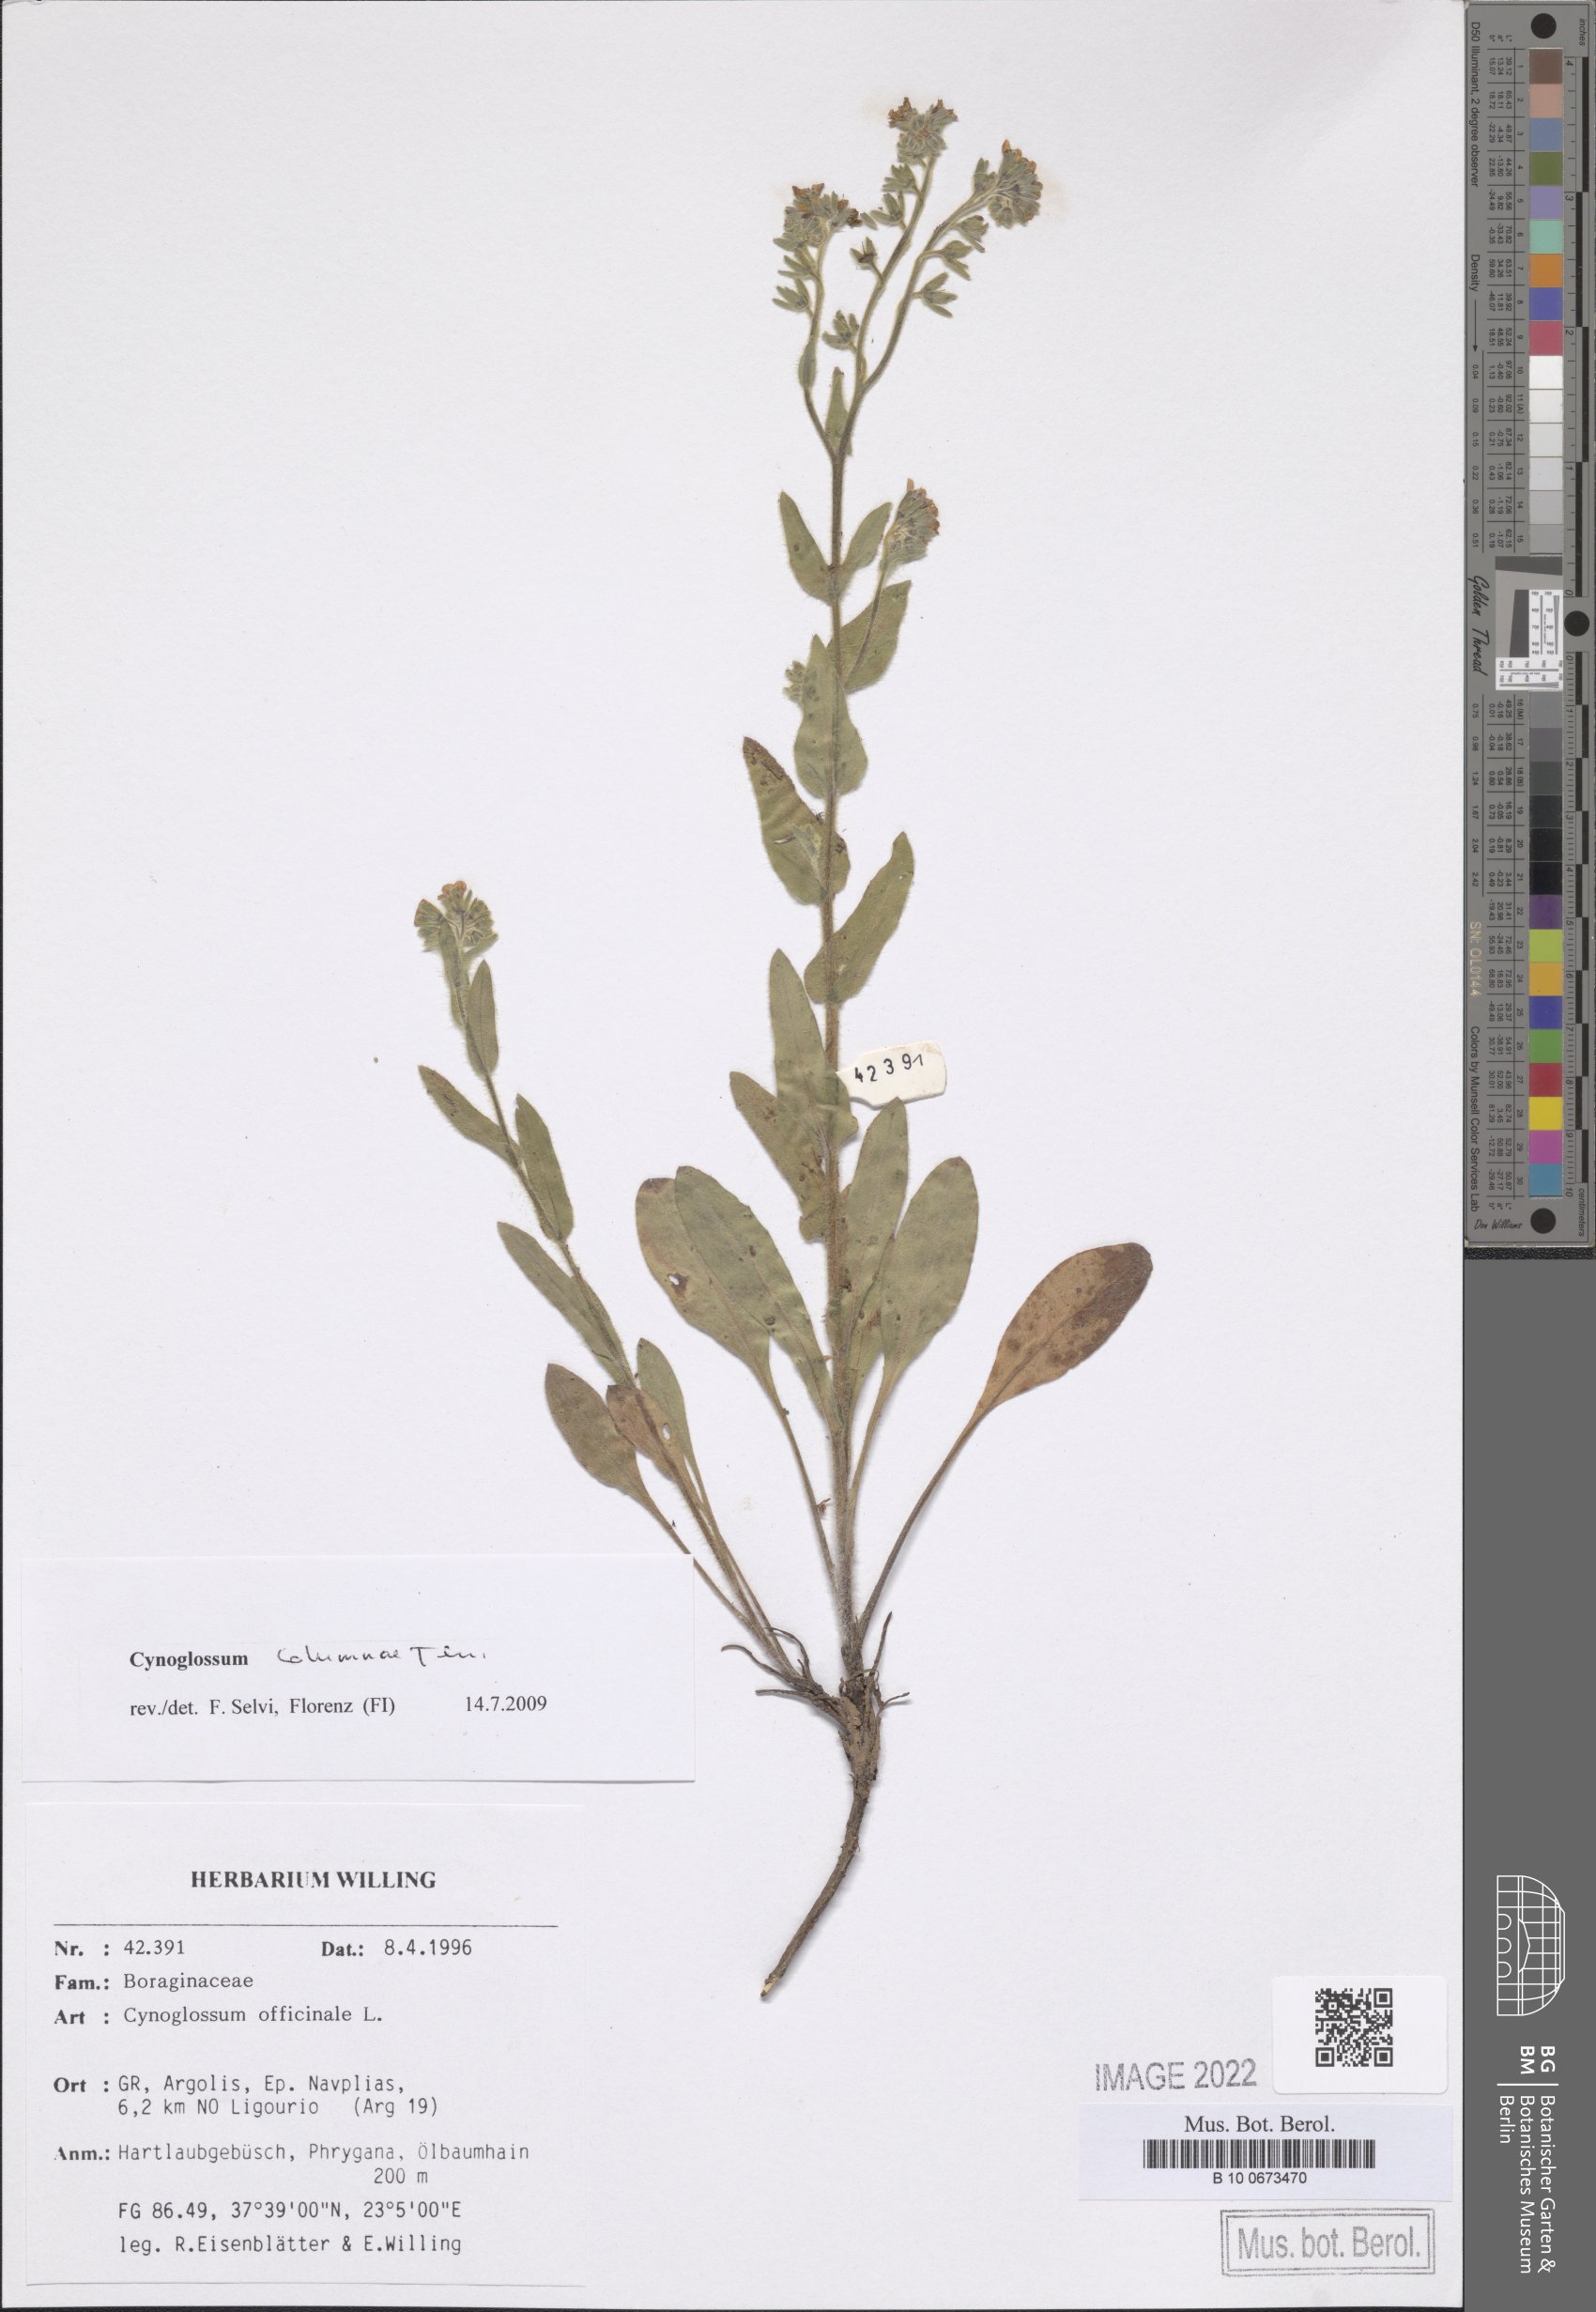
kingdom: Plantae
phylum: Tracheophyta
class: Magnoliopsida
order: Boraginales
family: Boraginaceae
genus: Rindera
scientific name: Rindera columnae
